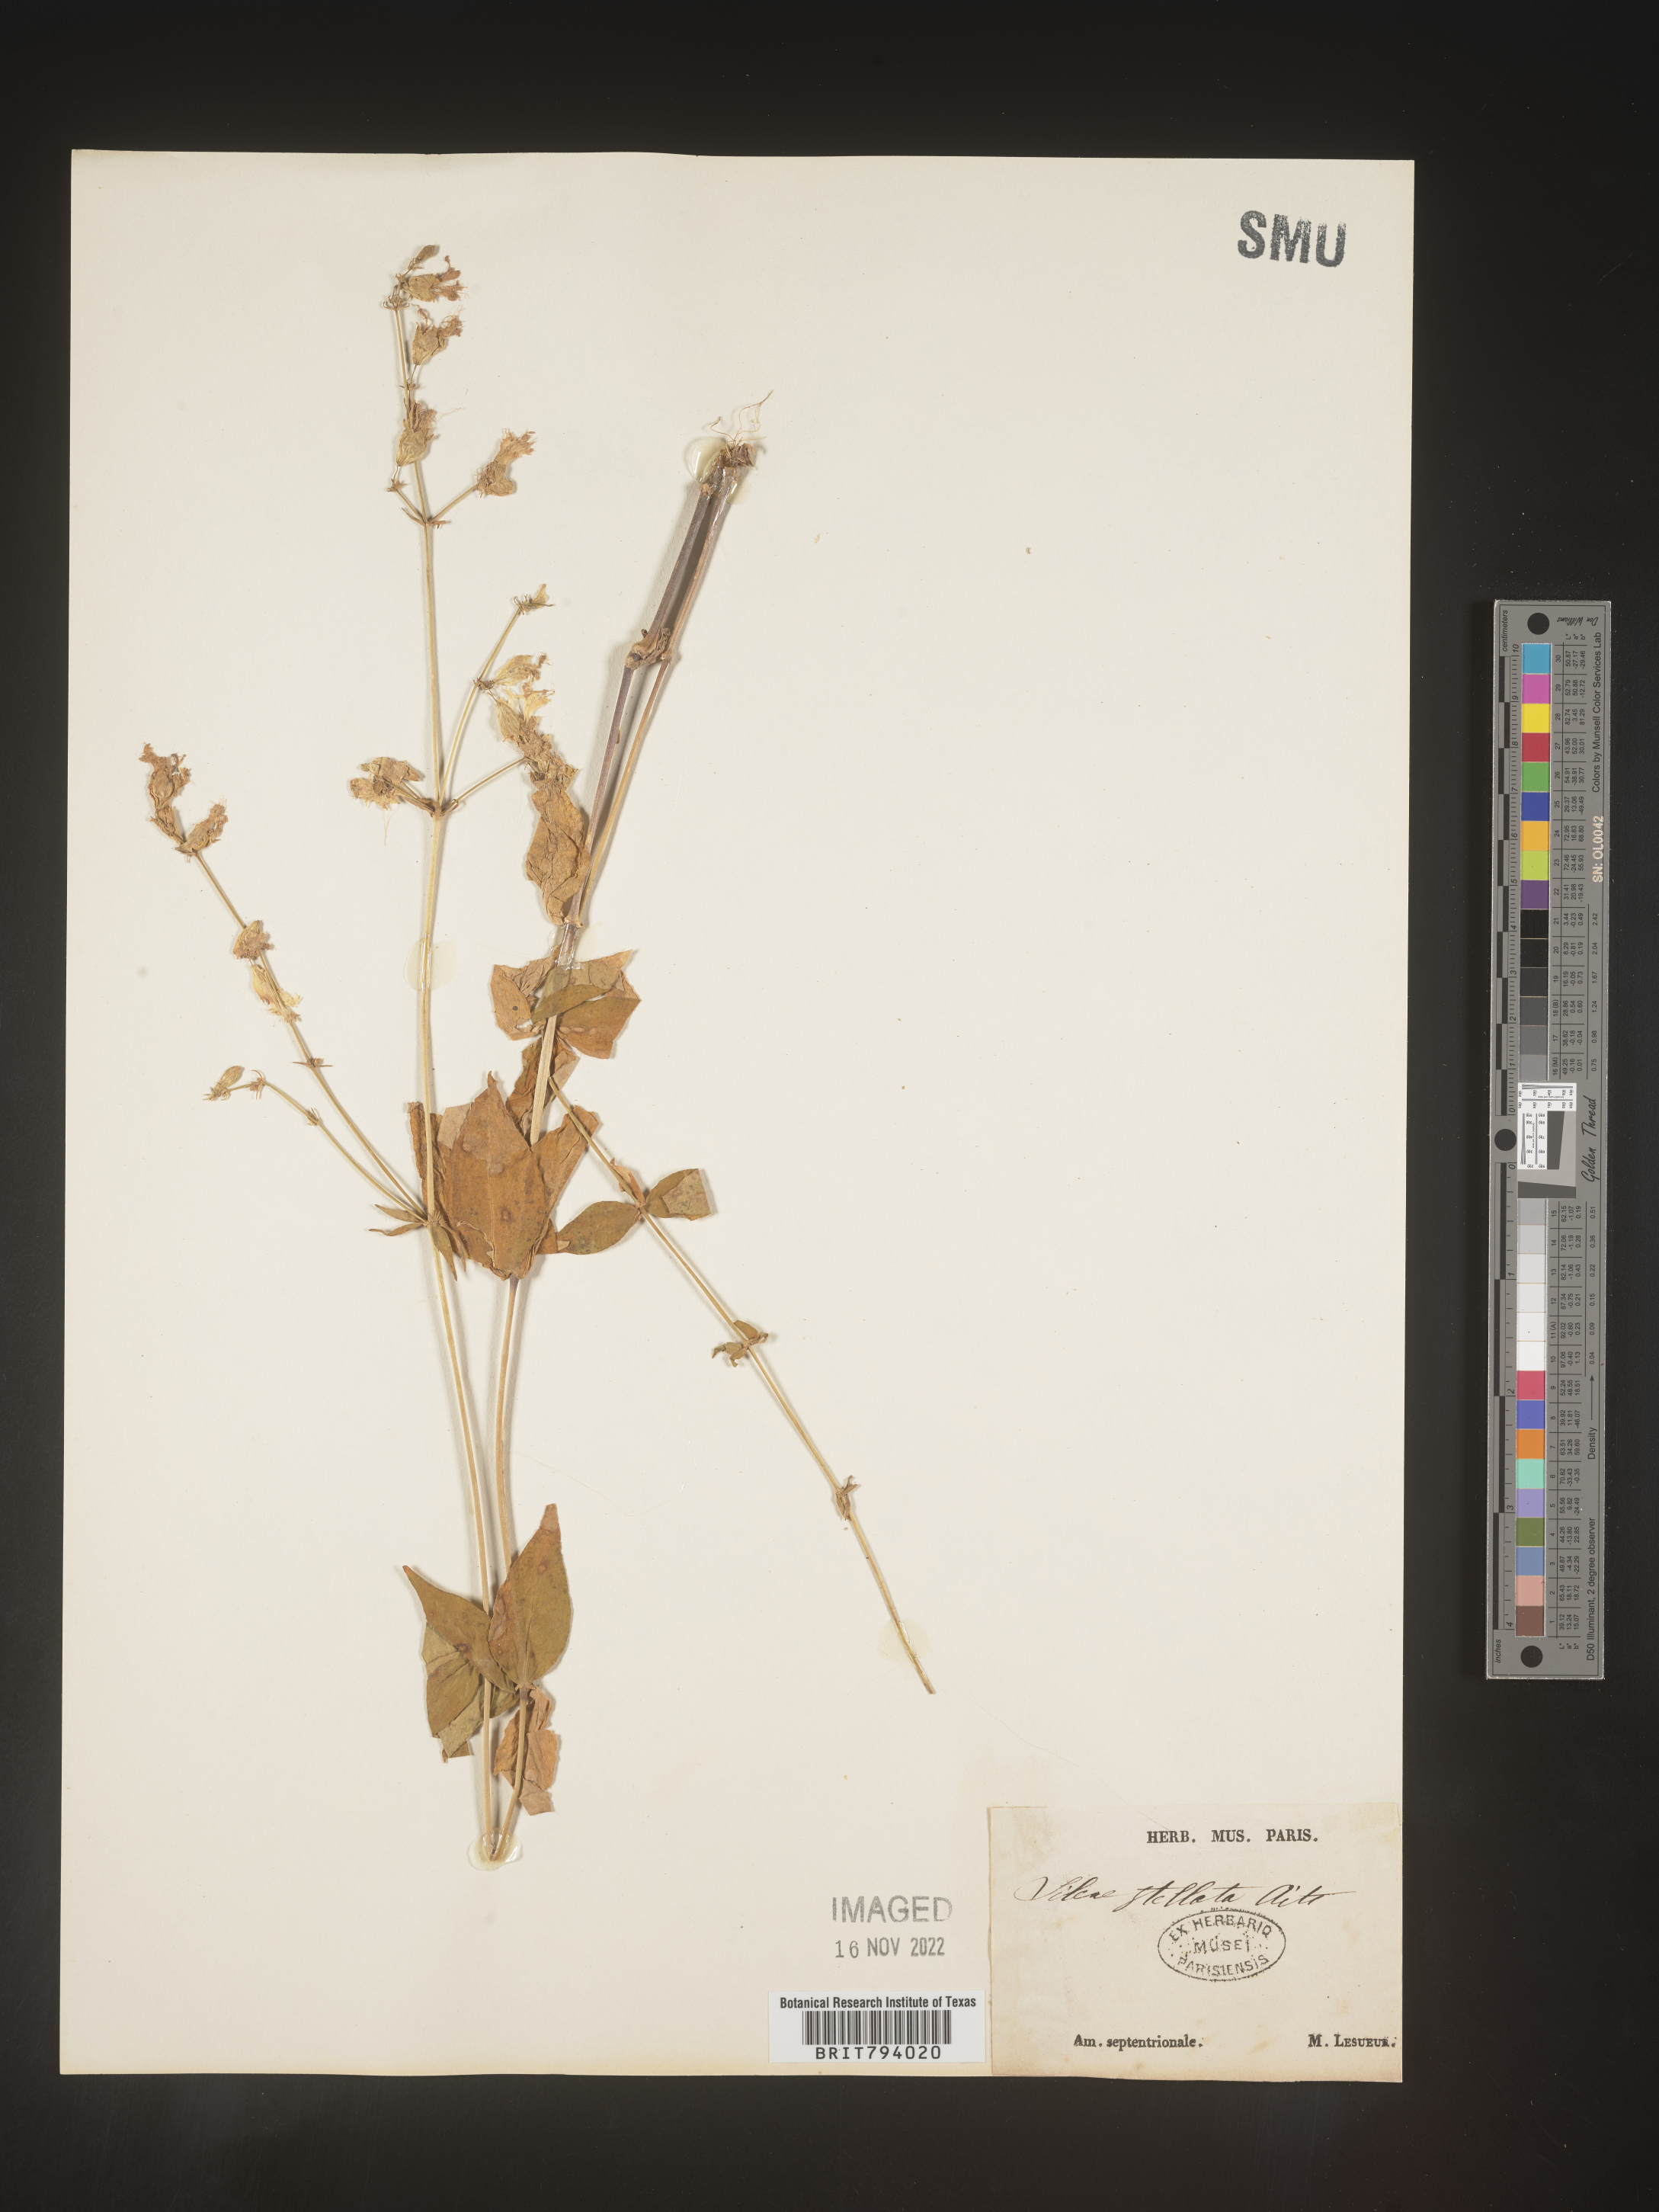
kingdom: Plantae
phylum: Tracheophyta
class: Magnoliopsida
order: Caryophyllales
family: Caryophyllaceae
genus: Silene
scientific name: Silene stellata
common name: Starry campion
